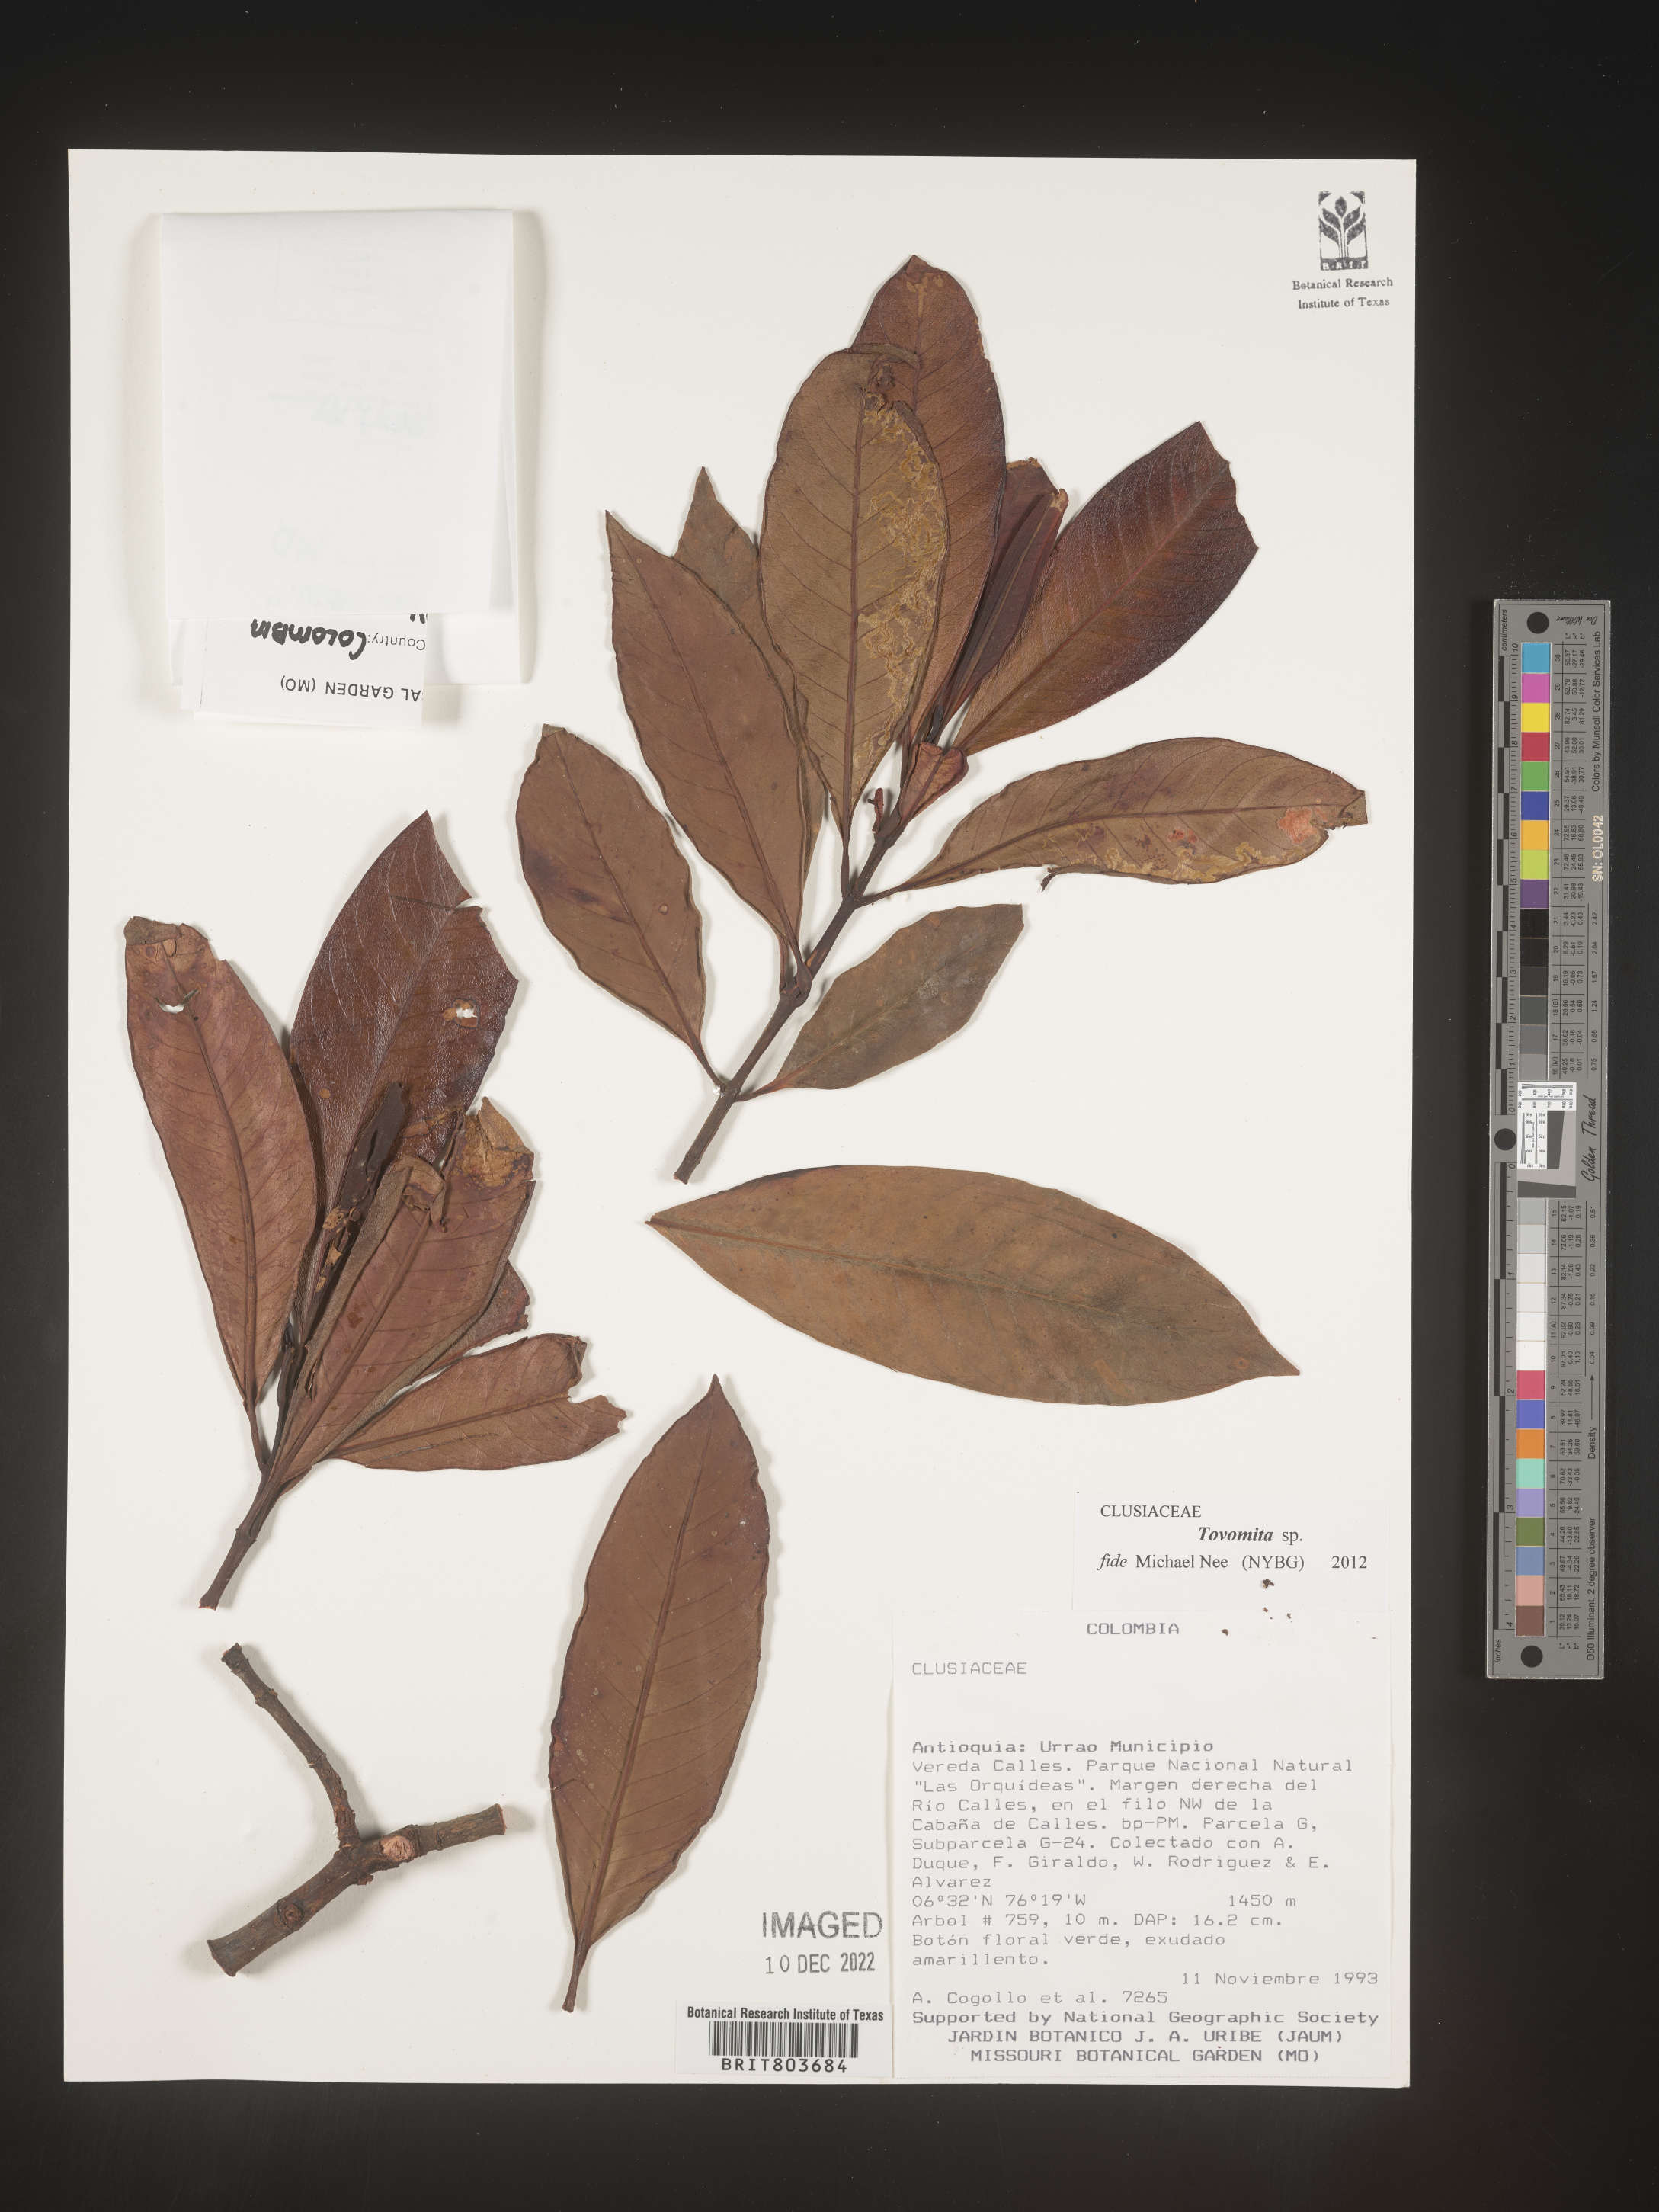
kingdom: Plantae
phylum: Tracheophyta
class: Magnoliopsida
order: Malpighiales
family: Clusiaceae
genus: Tovomita
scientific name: Tovomita
